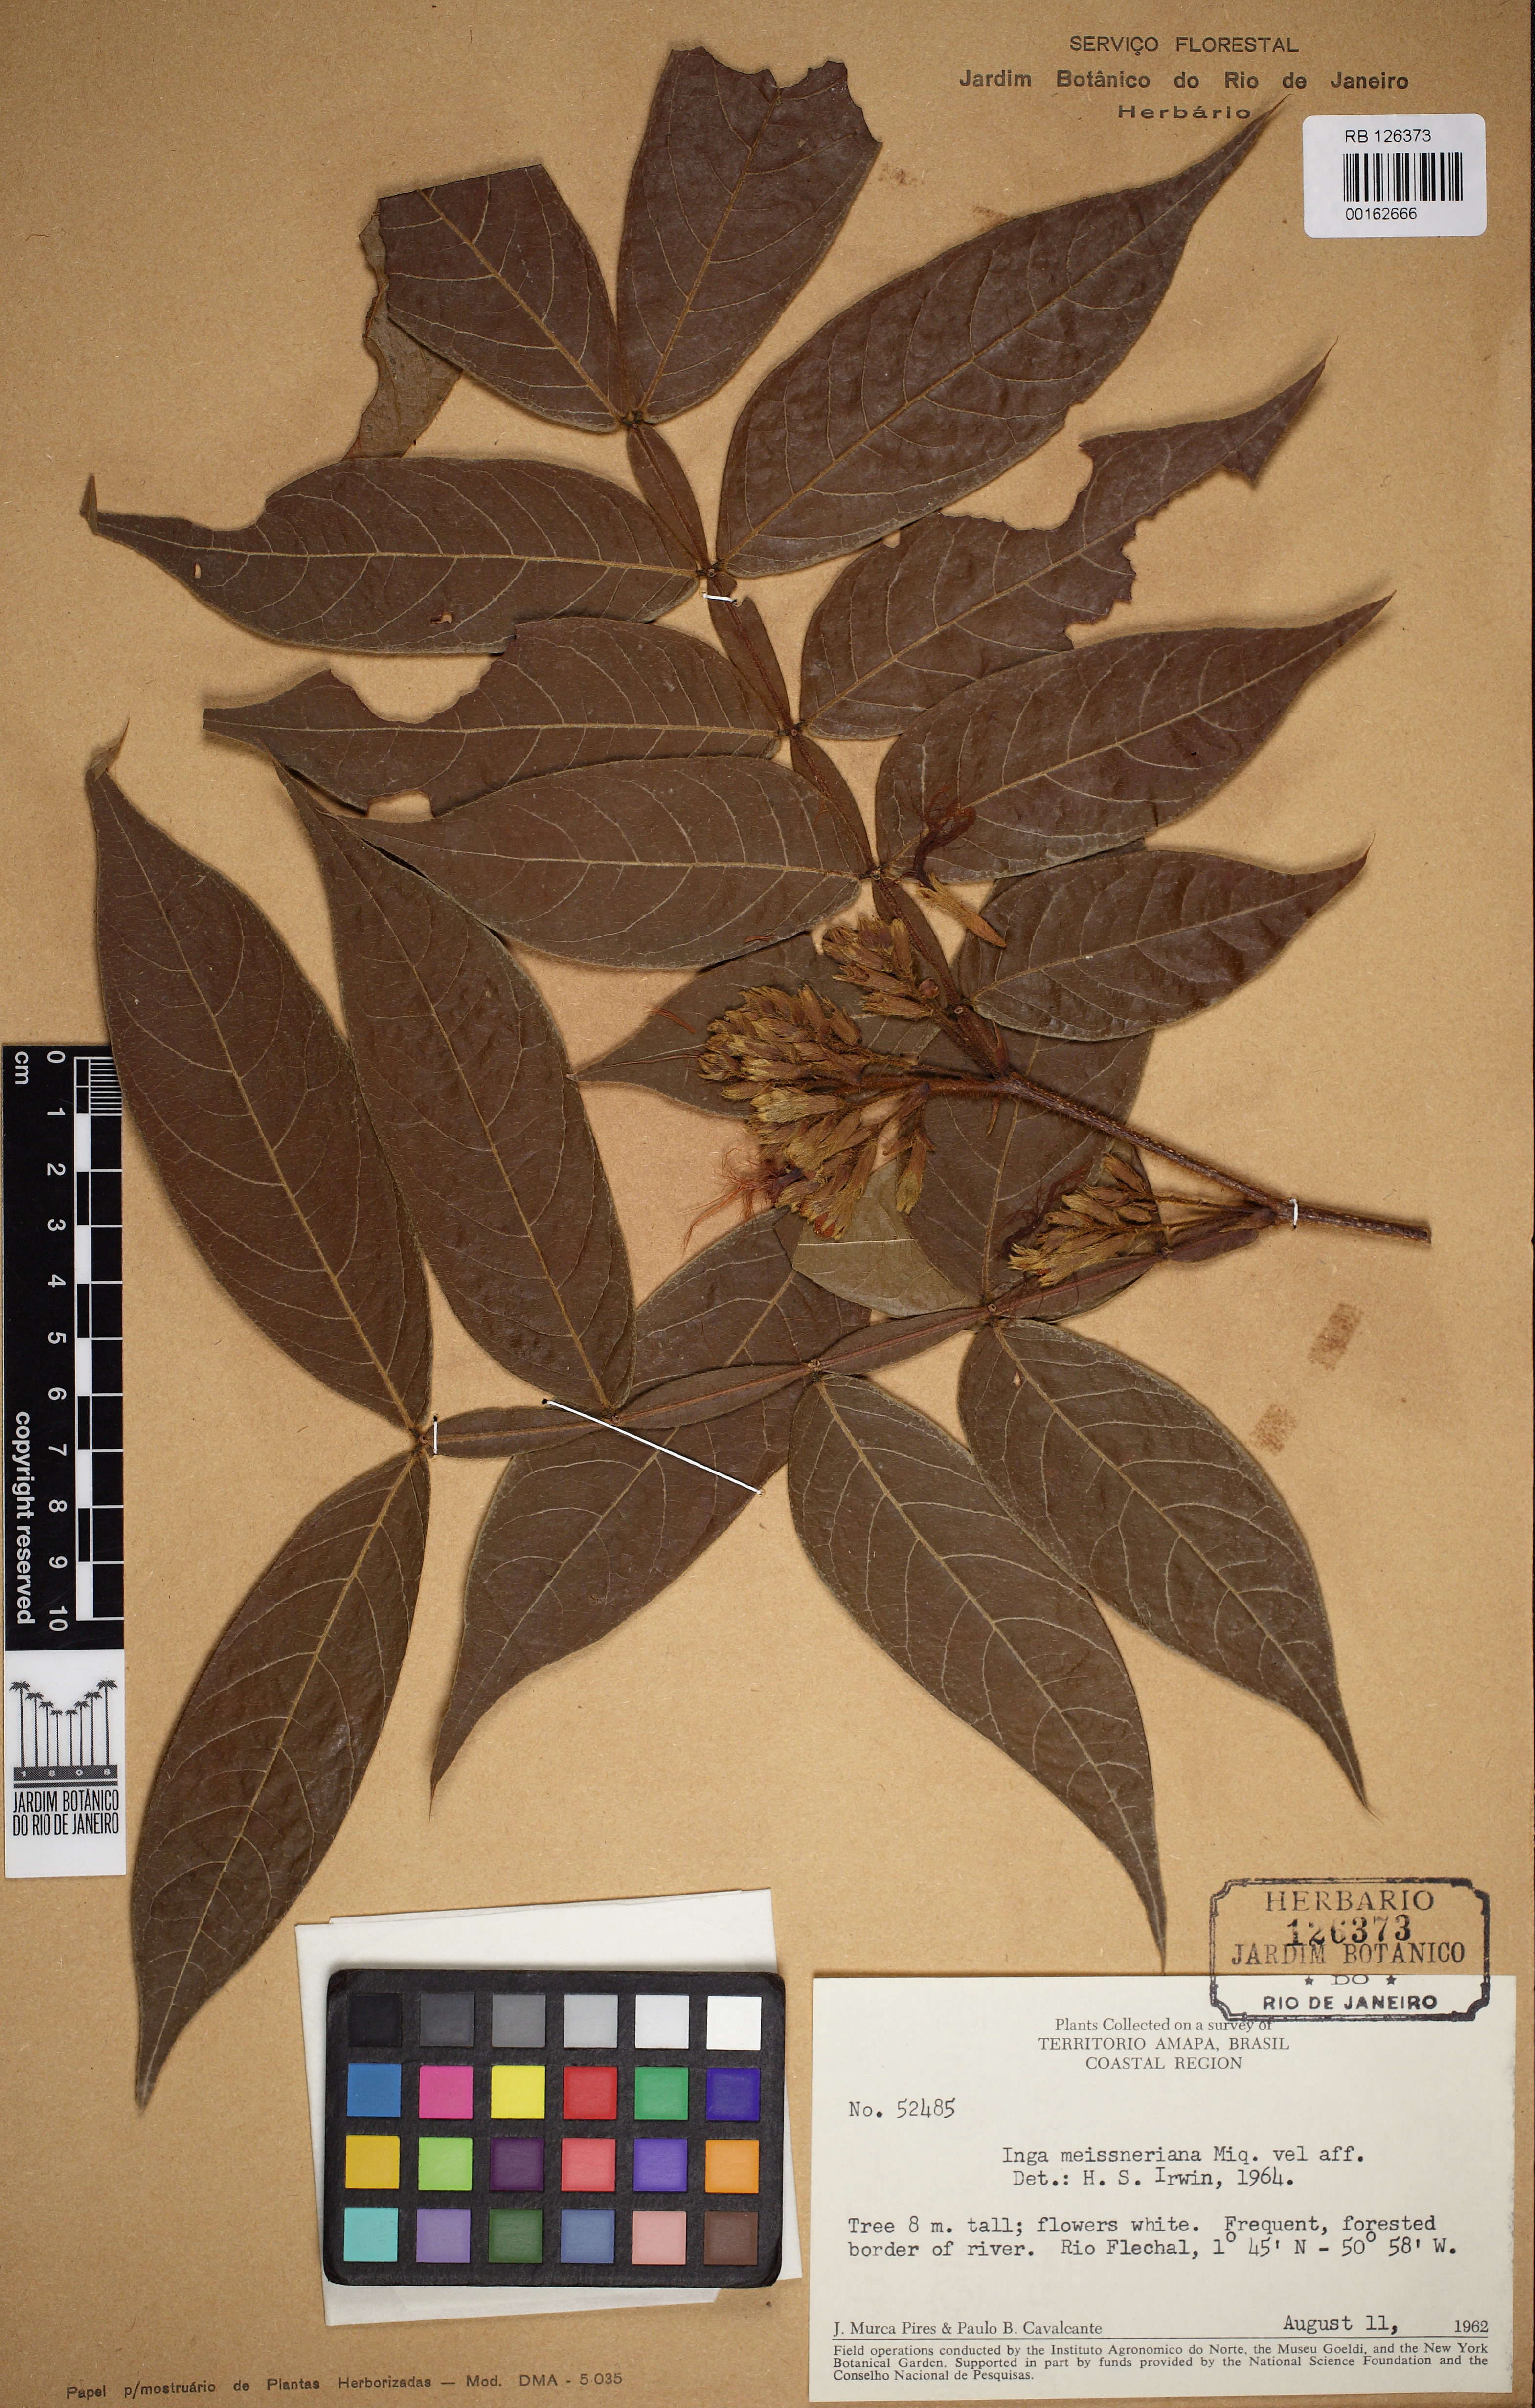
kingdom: Plantae
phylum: Tracheophyta
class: Magnoliopsida
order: Fabales
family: Fabaceae
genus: Inga
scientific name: Inga affinis
